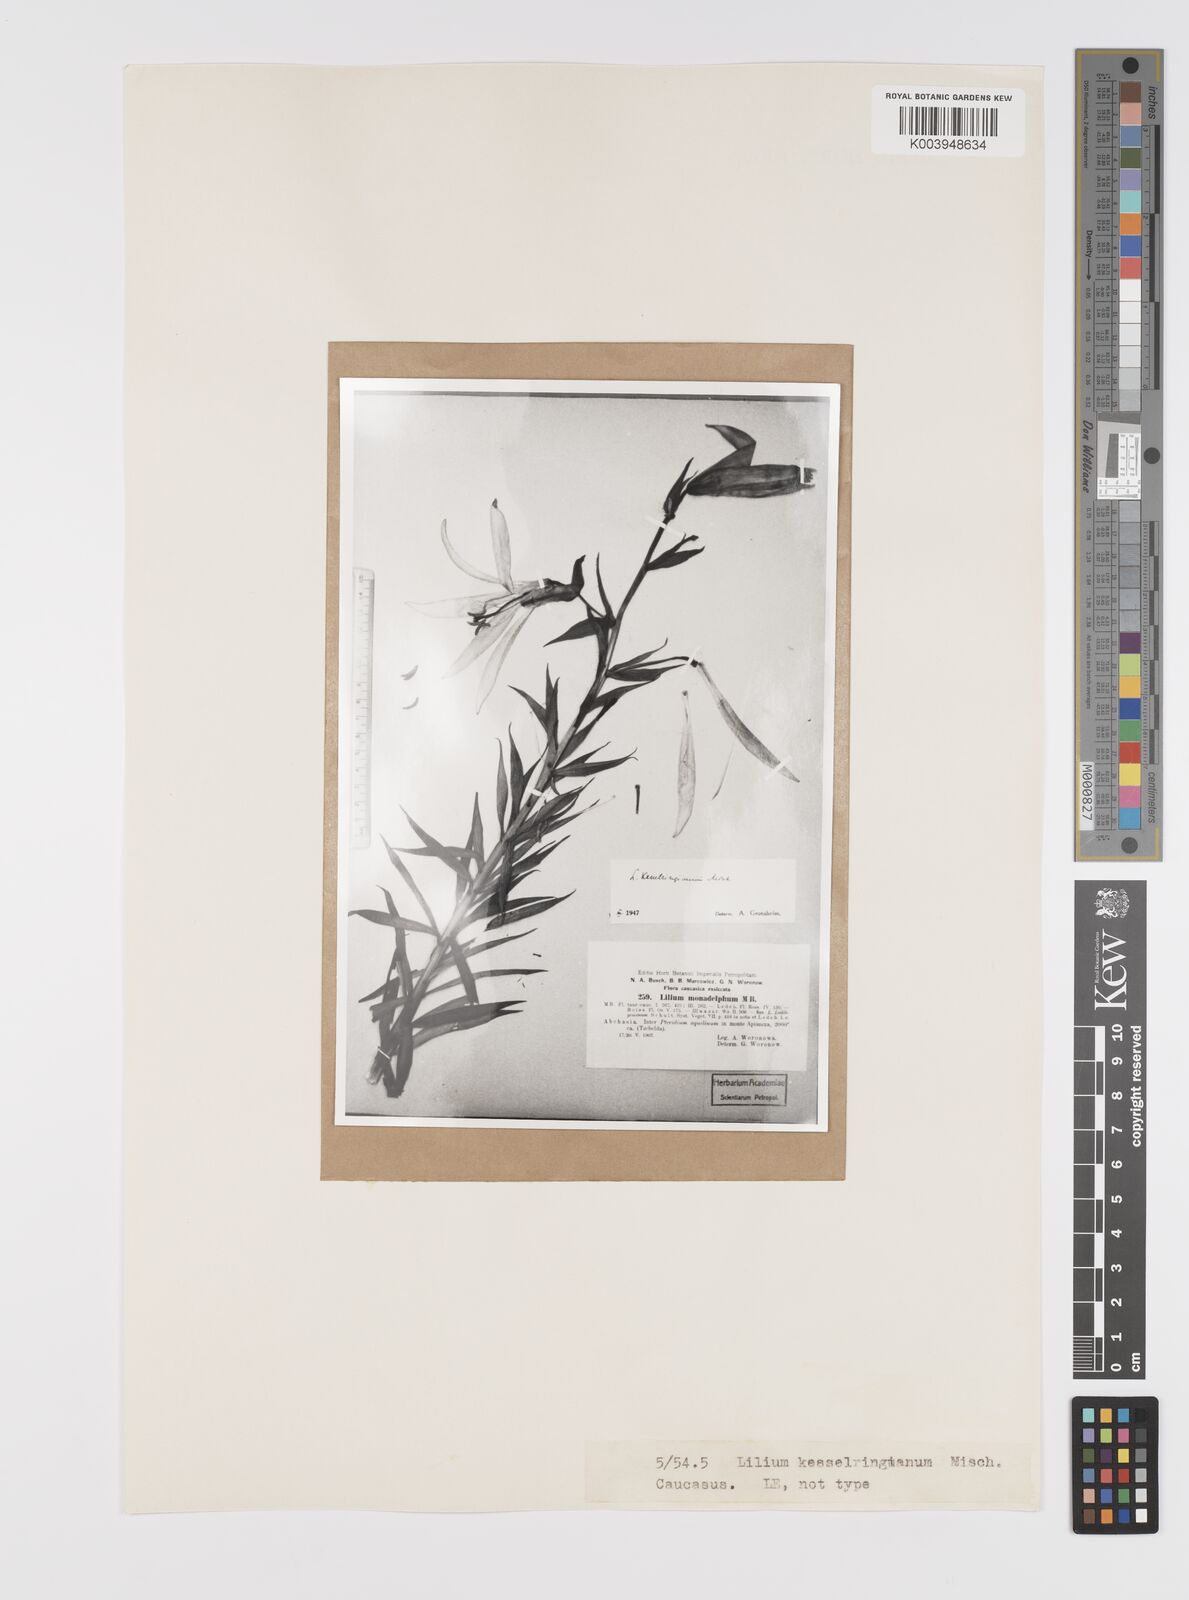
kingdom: Plantae
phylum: Tracheophyta
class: Liliopsida
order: Liliales
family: Liliaceae
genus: Lilium
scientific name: Lilium kesselringianum
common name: Kesselring lily
